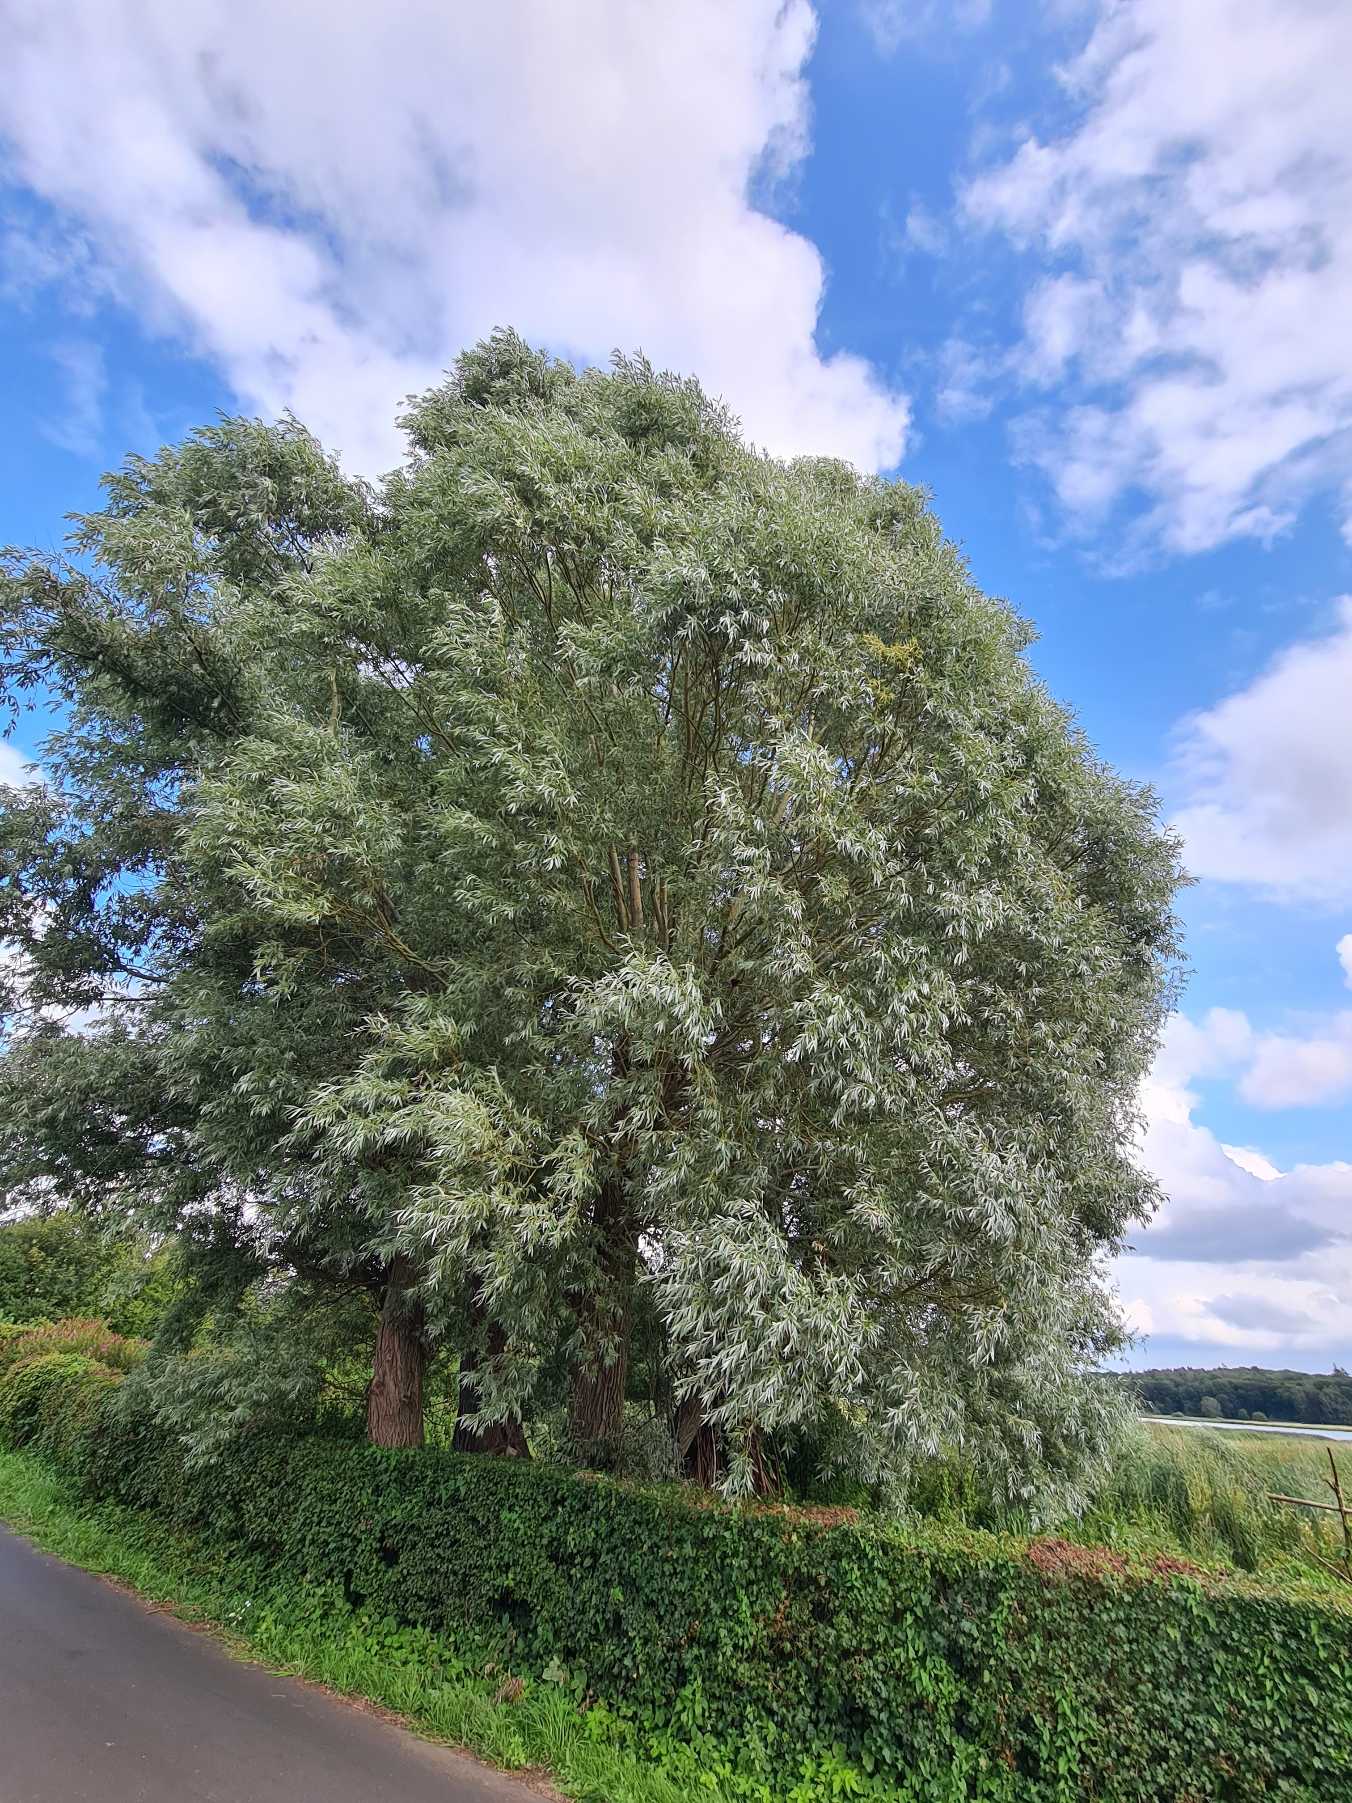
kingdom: Plantae
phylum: Tracheophyta
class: Magnoliopsida
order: Malpighiales
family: Salicaceae
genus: Salix
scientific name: Salix alba
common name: Hvid-pil
